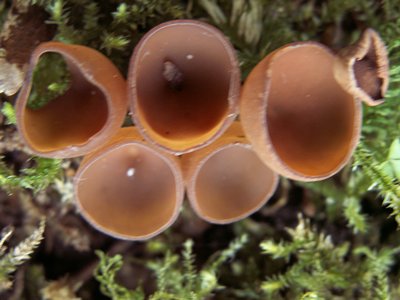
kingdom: Fungi
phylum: Ascomycota
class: Leotiomycetes
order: Helotiales
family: Sclerotiniaceae
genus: Dumontinia
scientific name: Dumontinia tuberosa
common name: anemone-knoldskive
